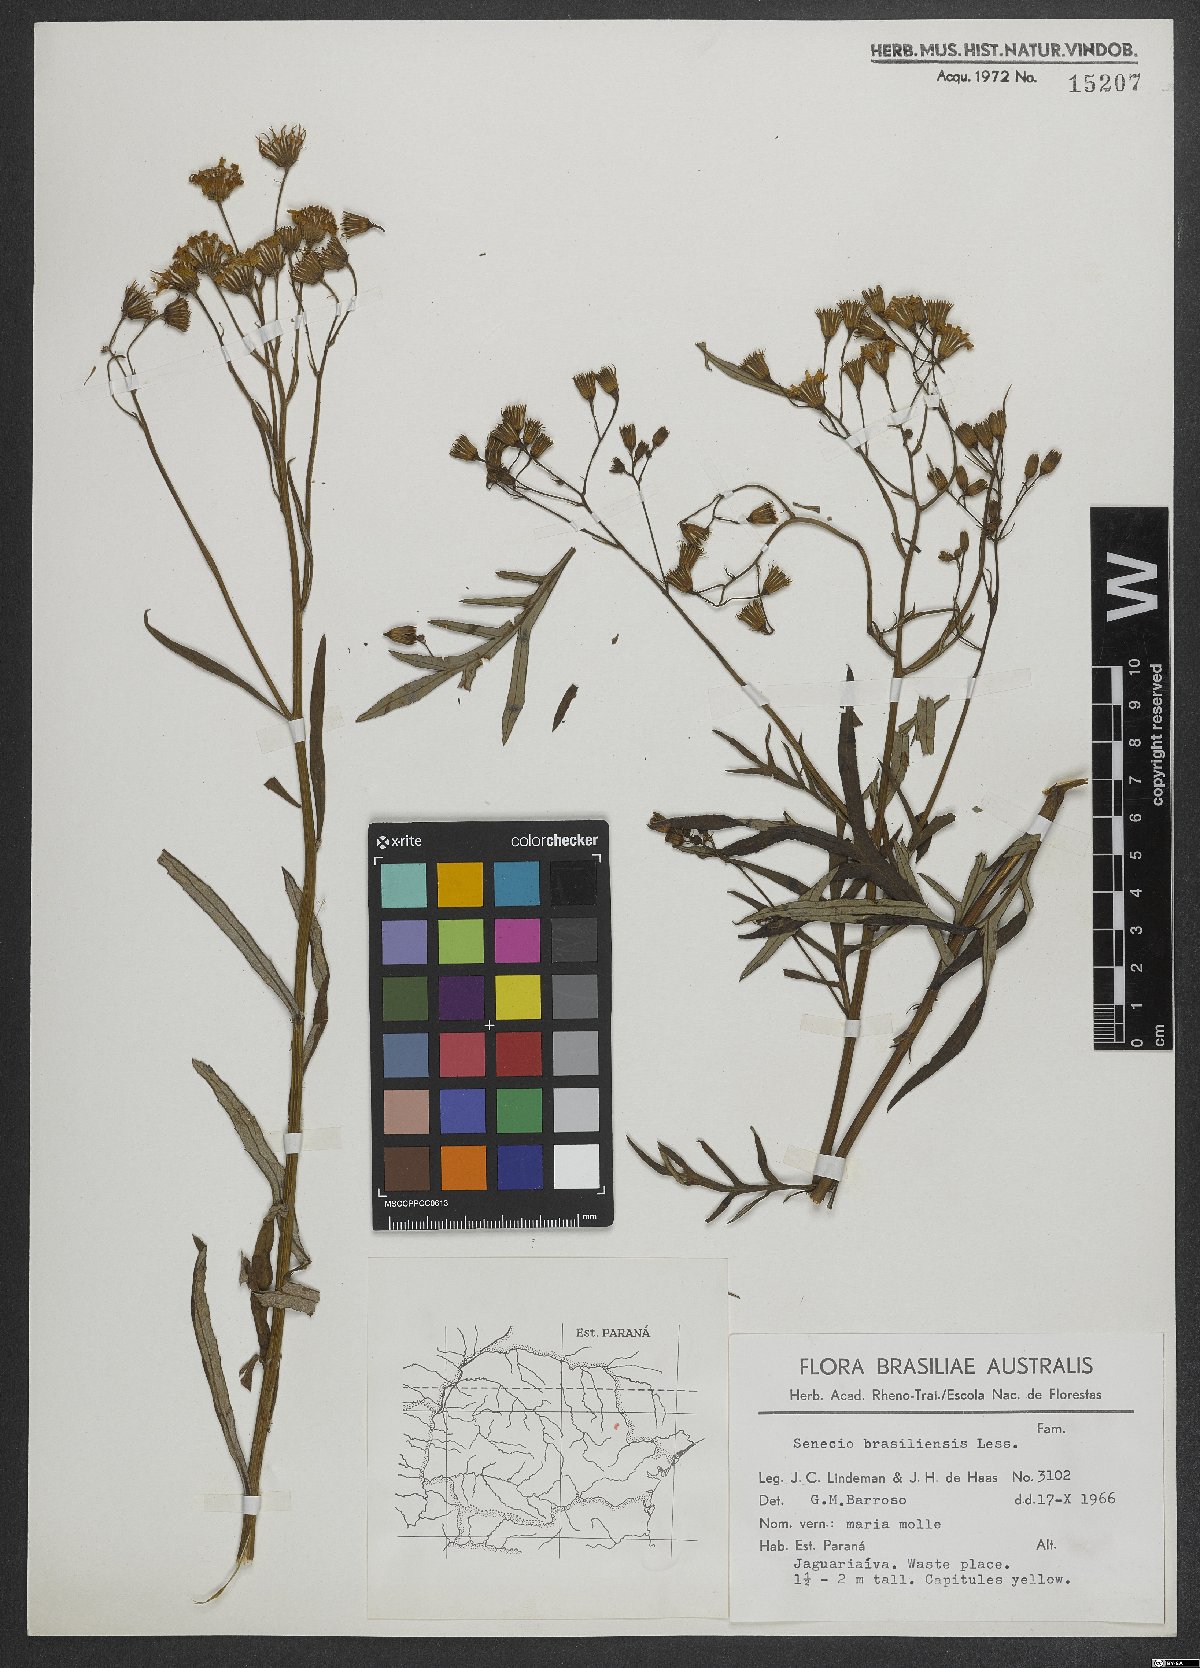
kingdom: Plantae
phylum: Tracheophyta
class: Magnoliopsida
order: Asterales
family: Asteraceae
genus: Senecio
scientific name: Senecio brasiliensis
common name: Hemp-leaf ragwort
